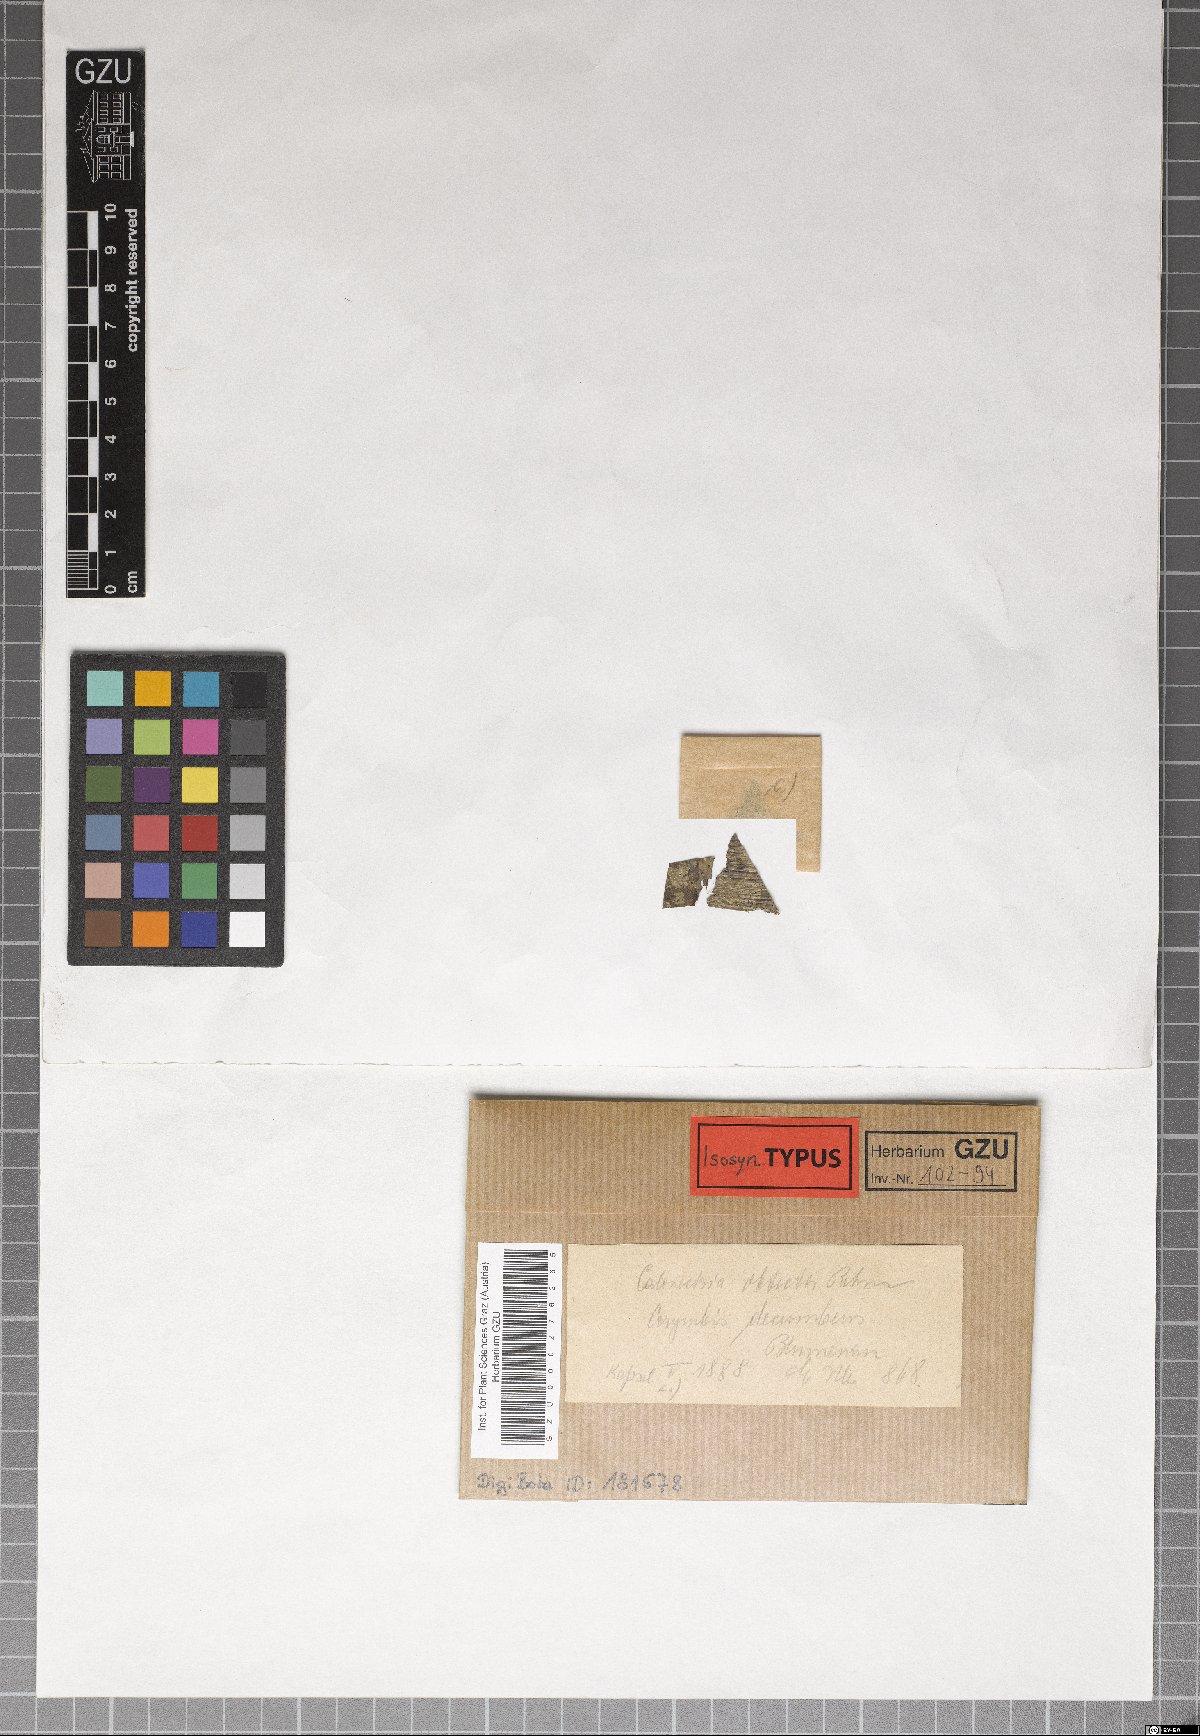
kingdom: Fungi
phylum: Ascomycota
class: Dothideomycetes
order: Microthyriales
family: Trichothyriaceae
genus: Trichopeltis
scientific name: Trichopeltis obtecta
